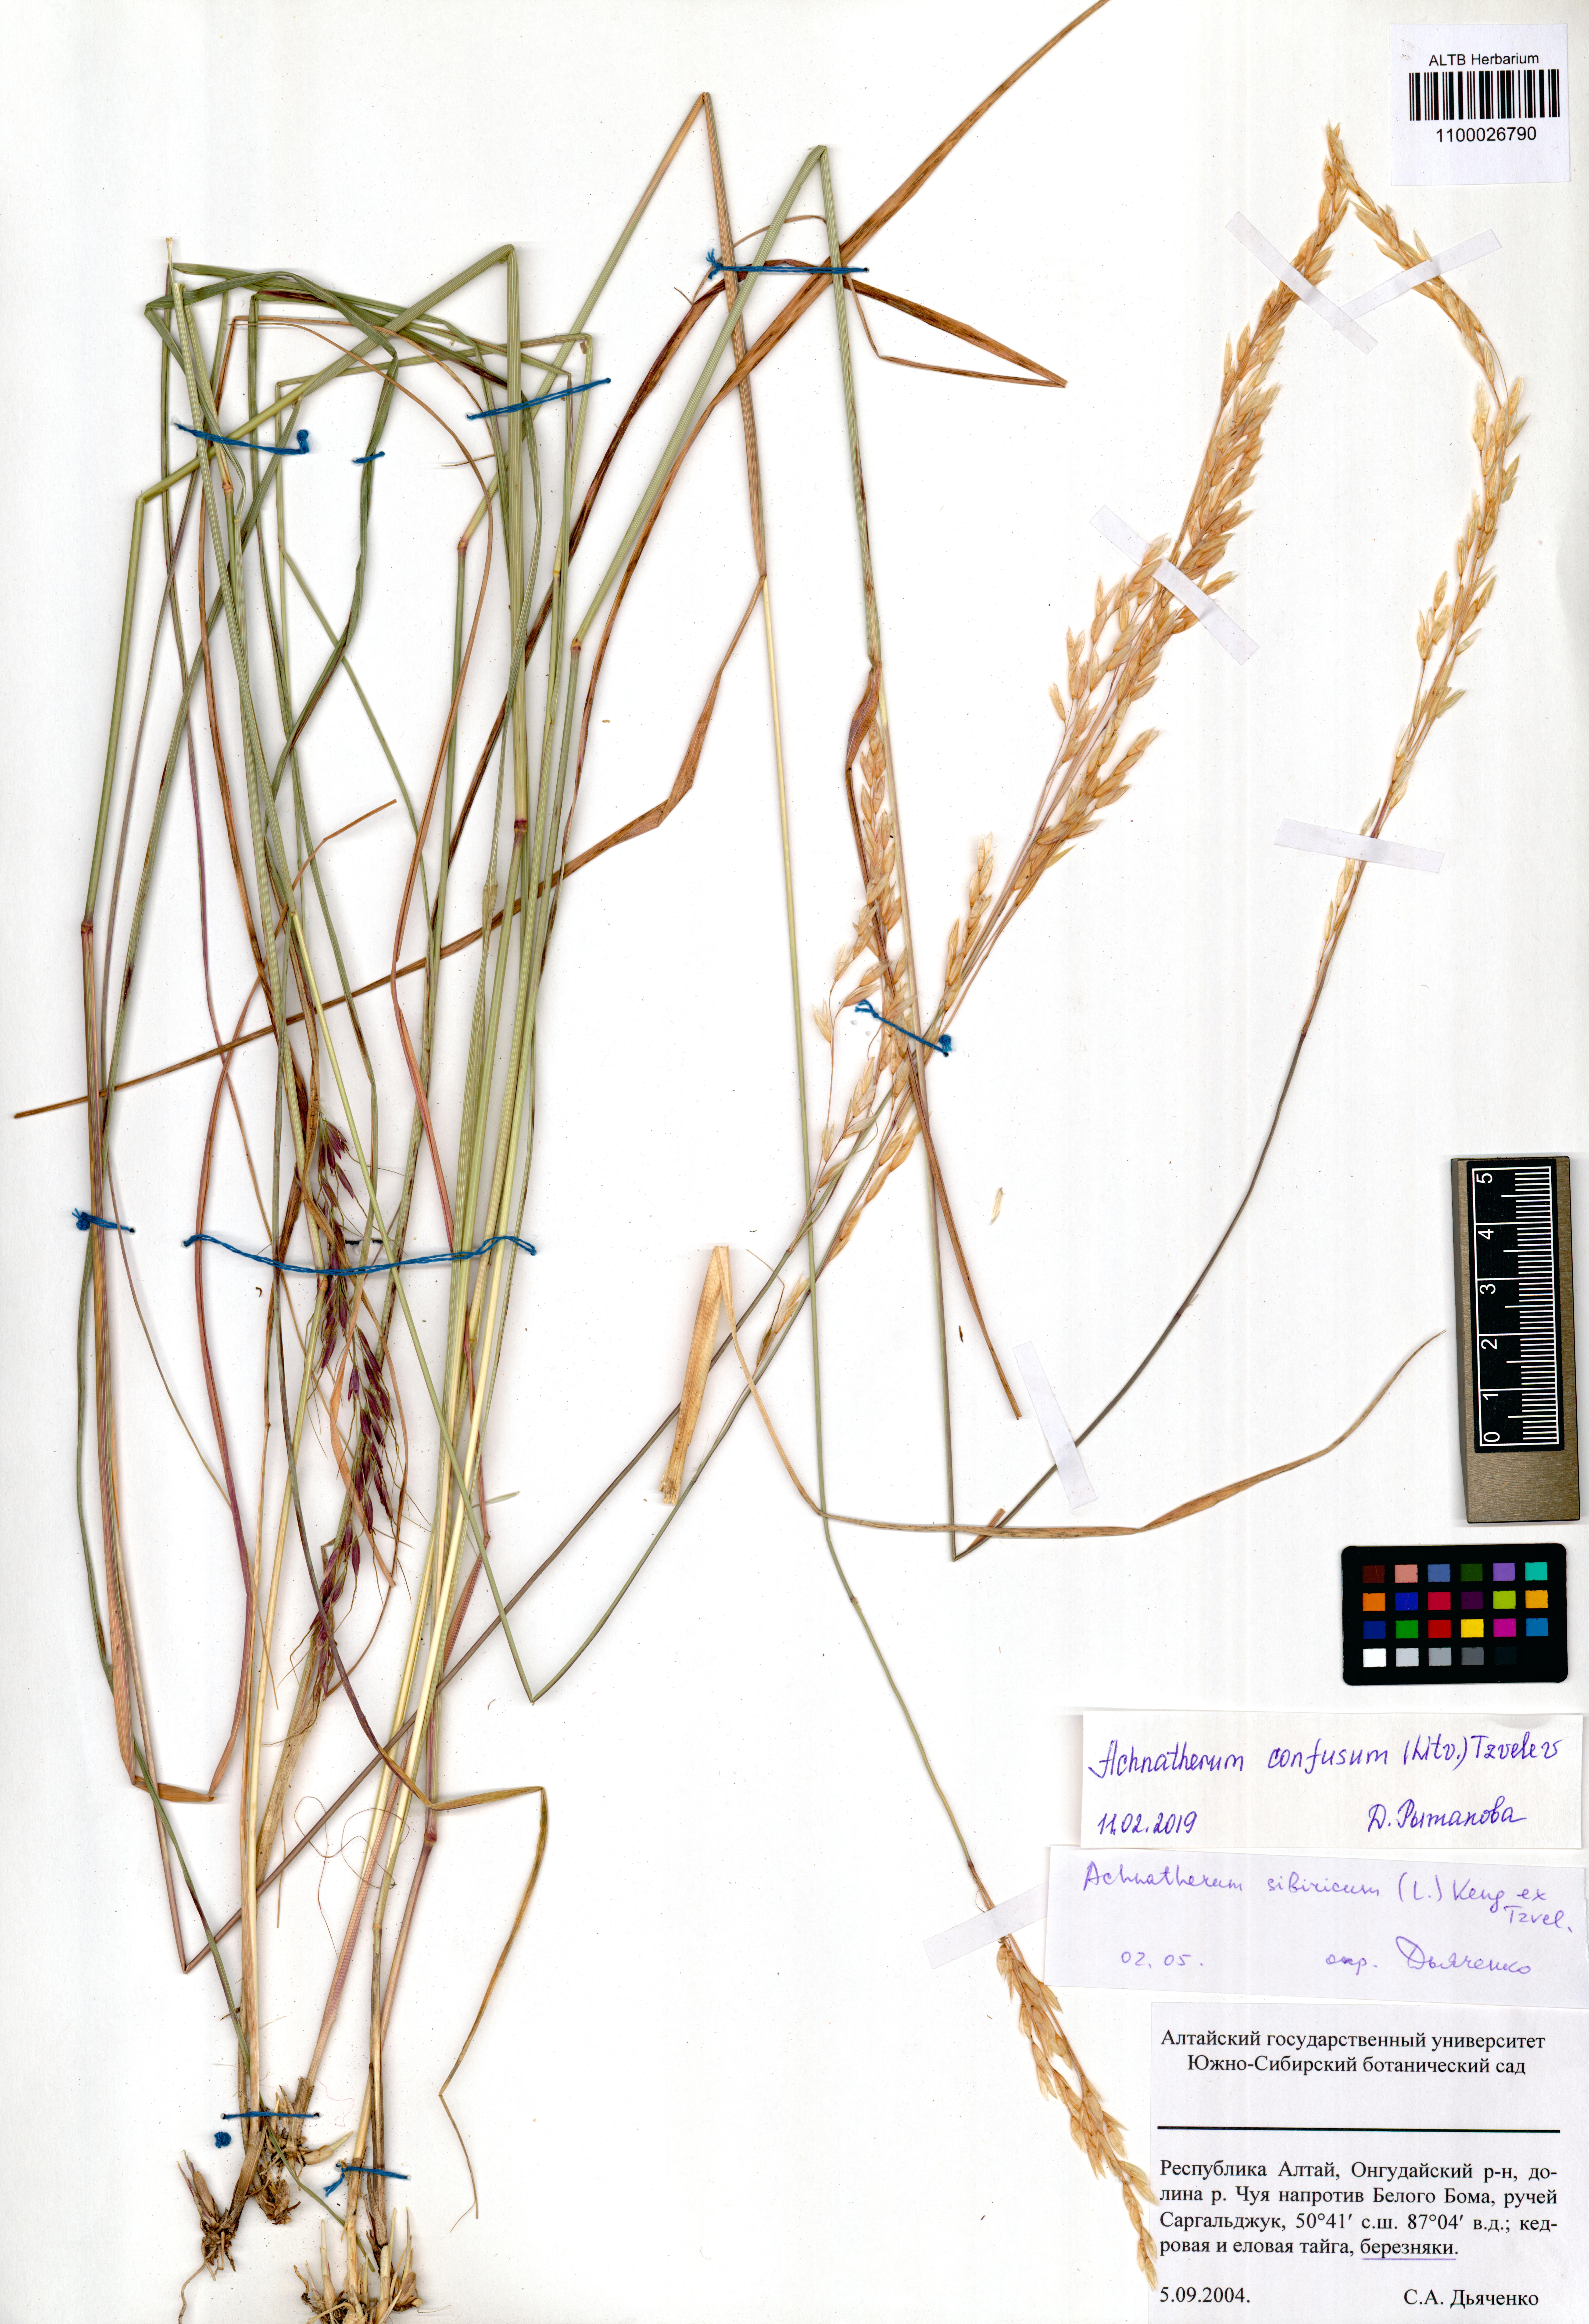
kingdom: Plantae
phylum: Tracheophyta
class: Liliopsida
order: Poales
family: Poaceae
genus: Achnatherum
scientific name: Achnatherum confusum
